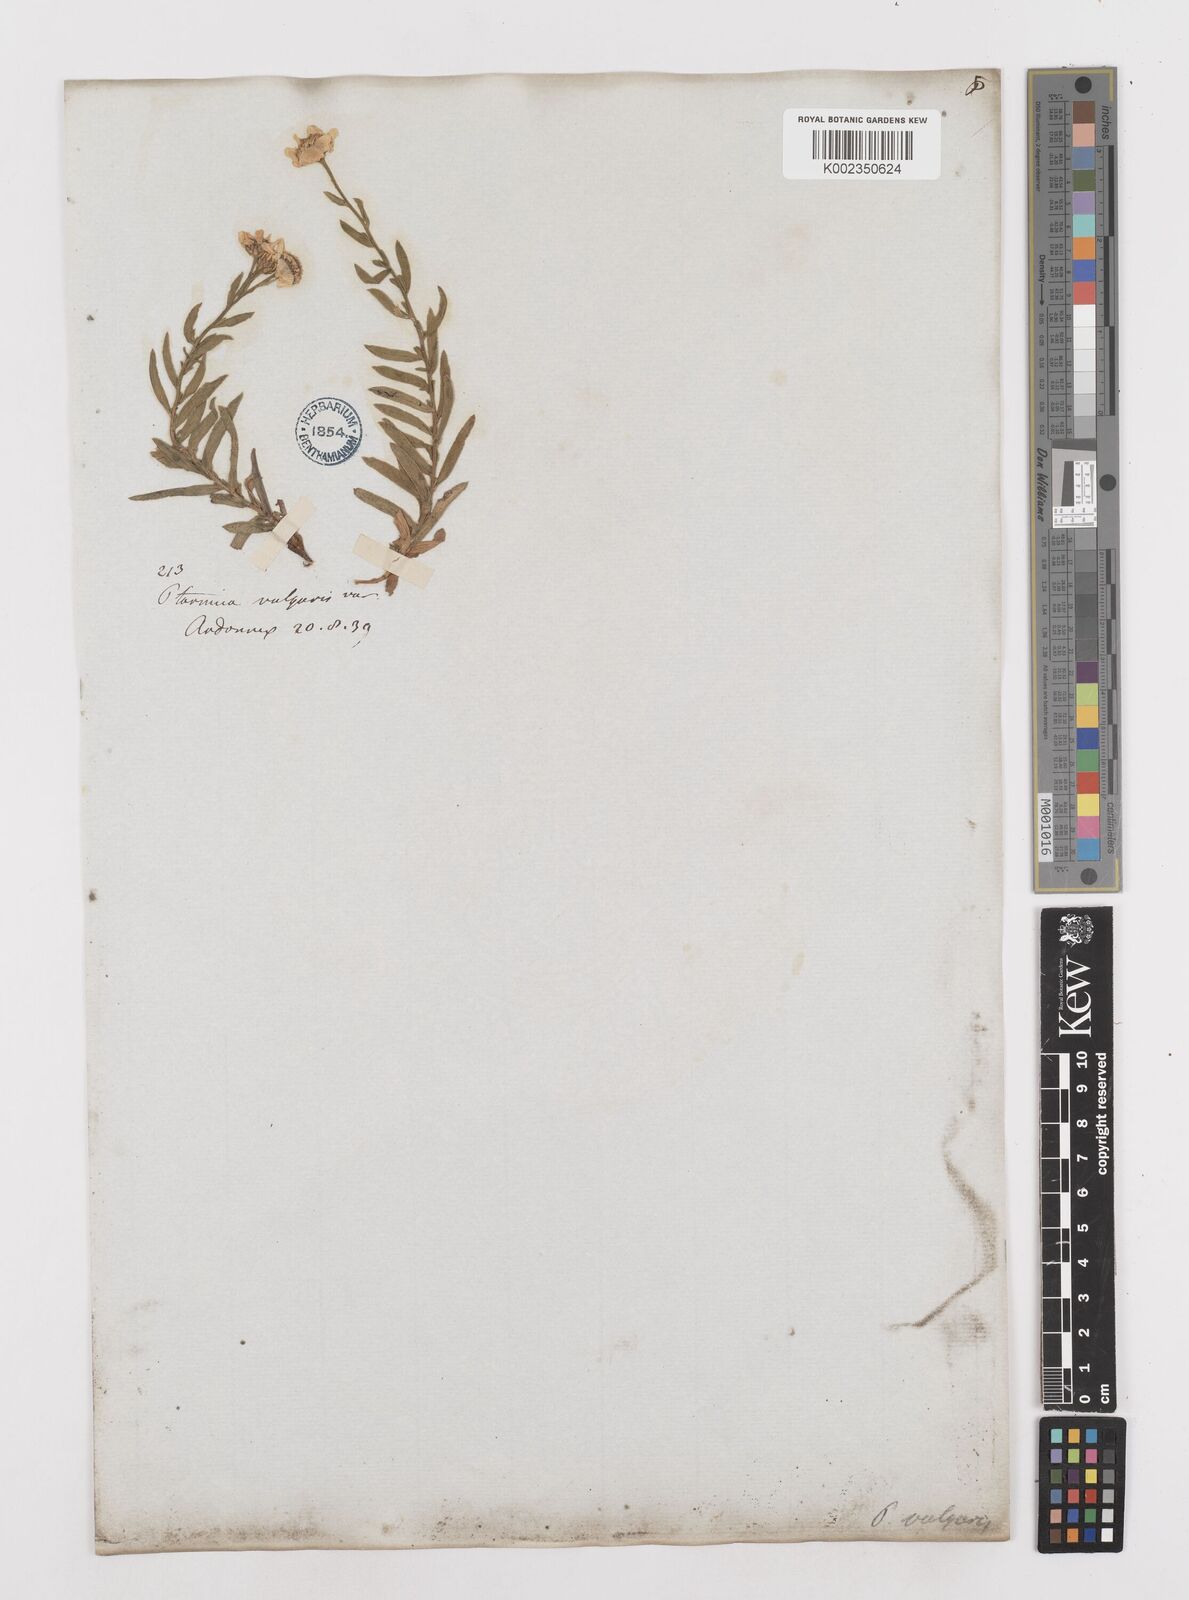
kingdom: Plantae
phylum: Tracheophyta
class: Magnoliopsida
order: Asterales
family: Asteraceae
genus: Achillea
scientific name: Achillea ptarmica
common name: Sneezeweed
